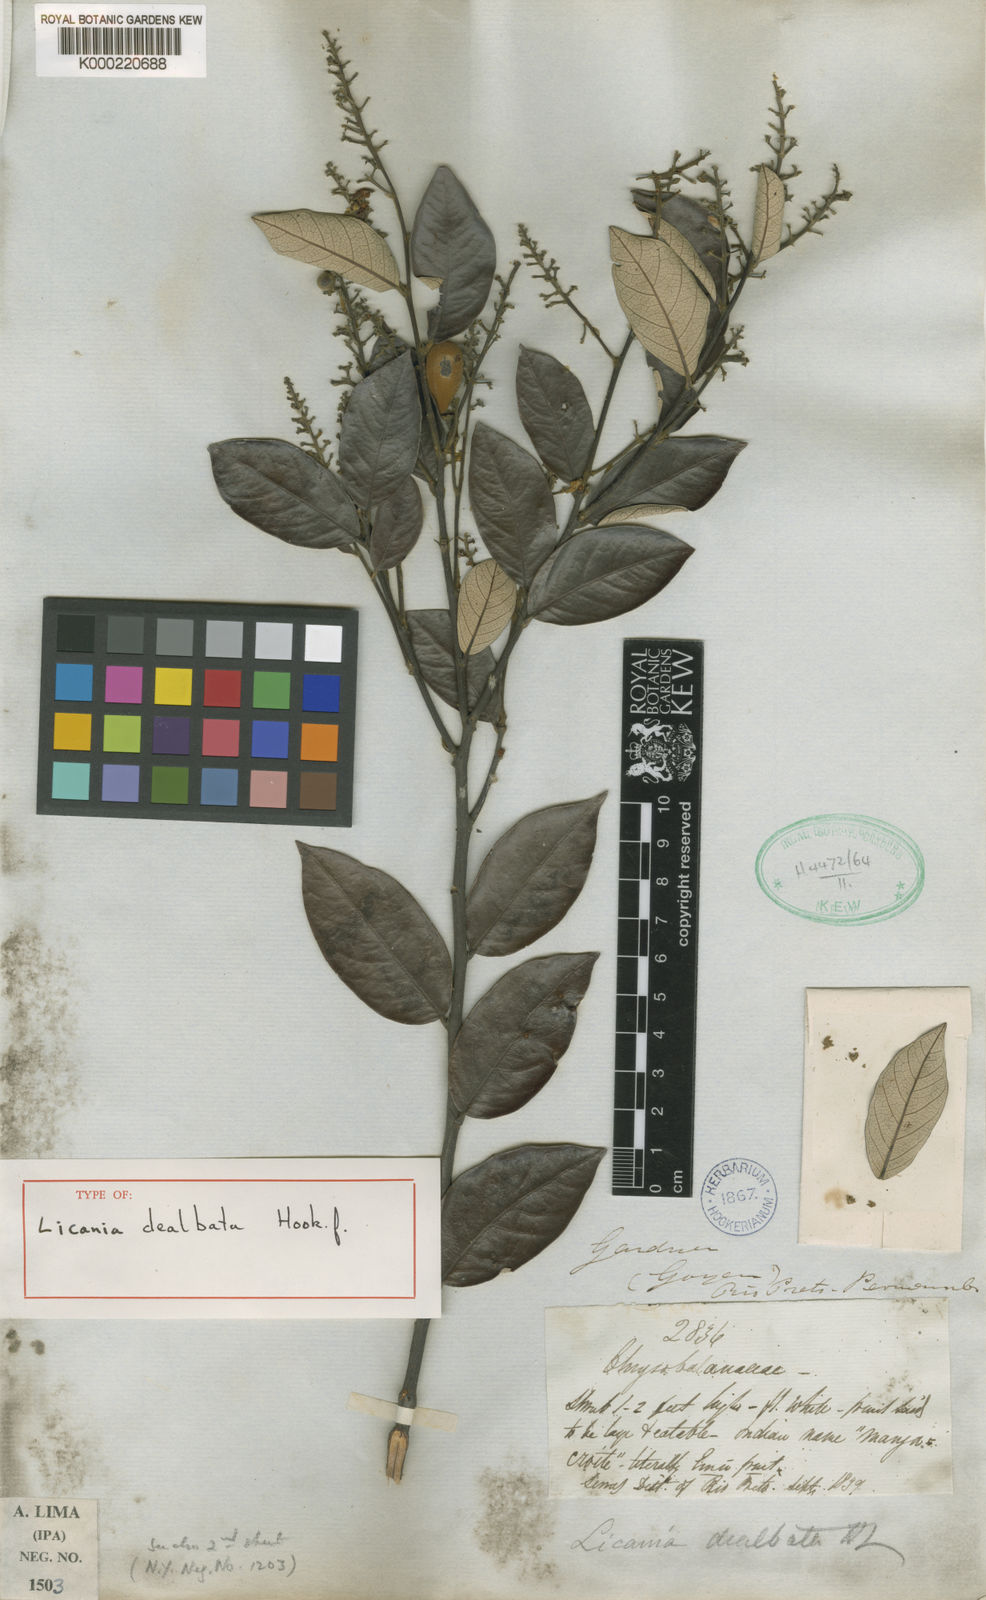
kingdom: Plantae
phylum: Tracheophyta
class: Magnoliopsida
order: Malpighiales
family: Chrysobalanaceae
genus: Licania
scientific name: Licania dealbata
